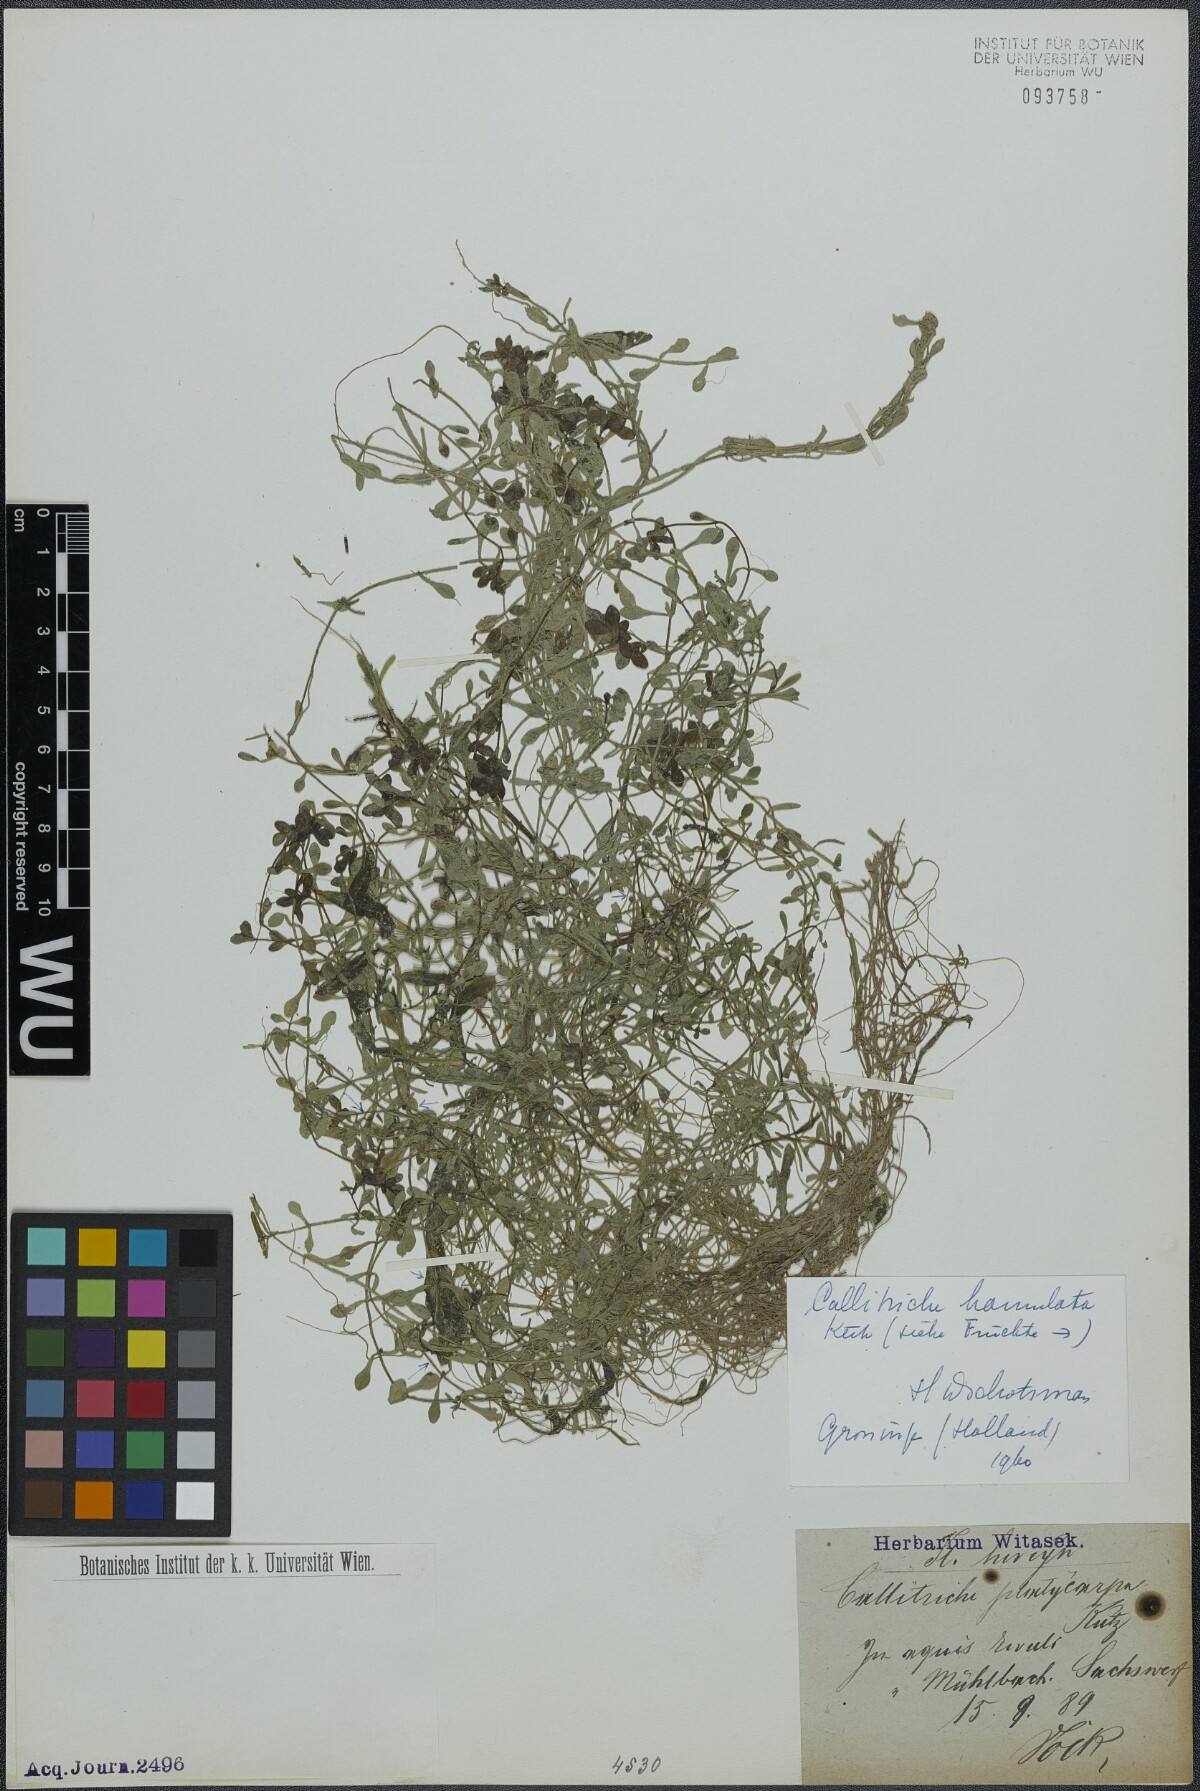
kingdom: Plantae
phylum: Tracheophyta
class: Magnoliopsida
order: Lamiales
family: Plantaginaceae
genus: Callitriche
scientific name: Callitriche hamulata
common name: Intermediate water-starwort
